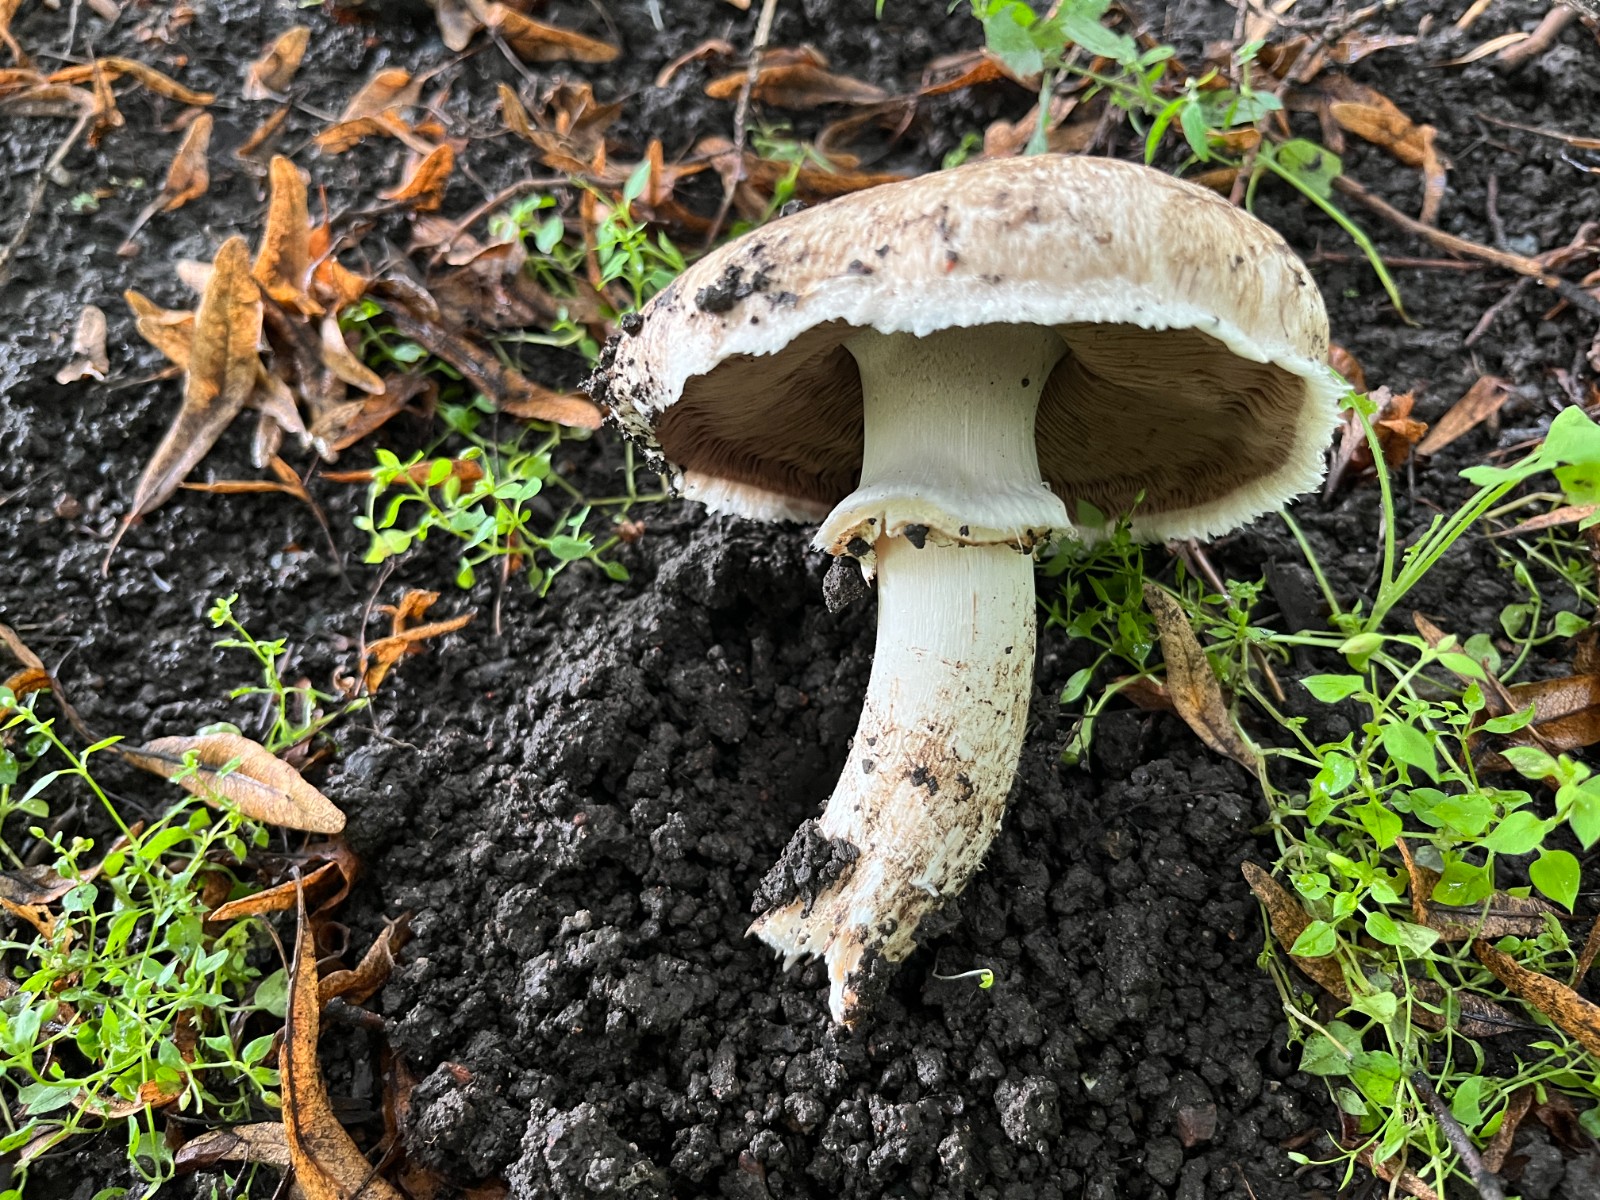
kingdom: Fungi
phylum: Basidiomycota
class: Agaricomycetes
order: Agaricales
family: Agaricaceae
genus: Agaricus
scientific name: Agaricus subperonatus
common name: knippe-champignon
